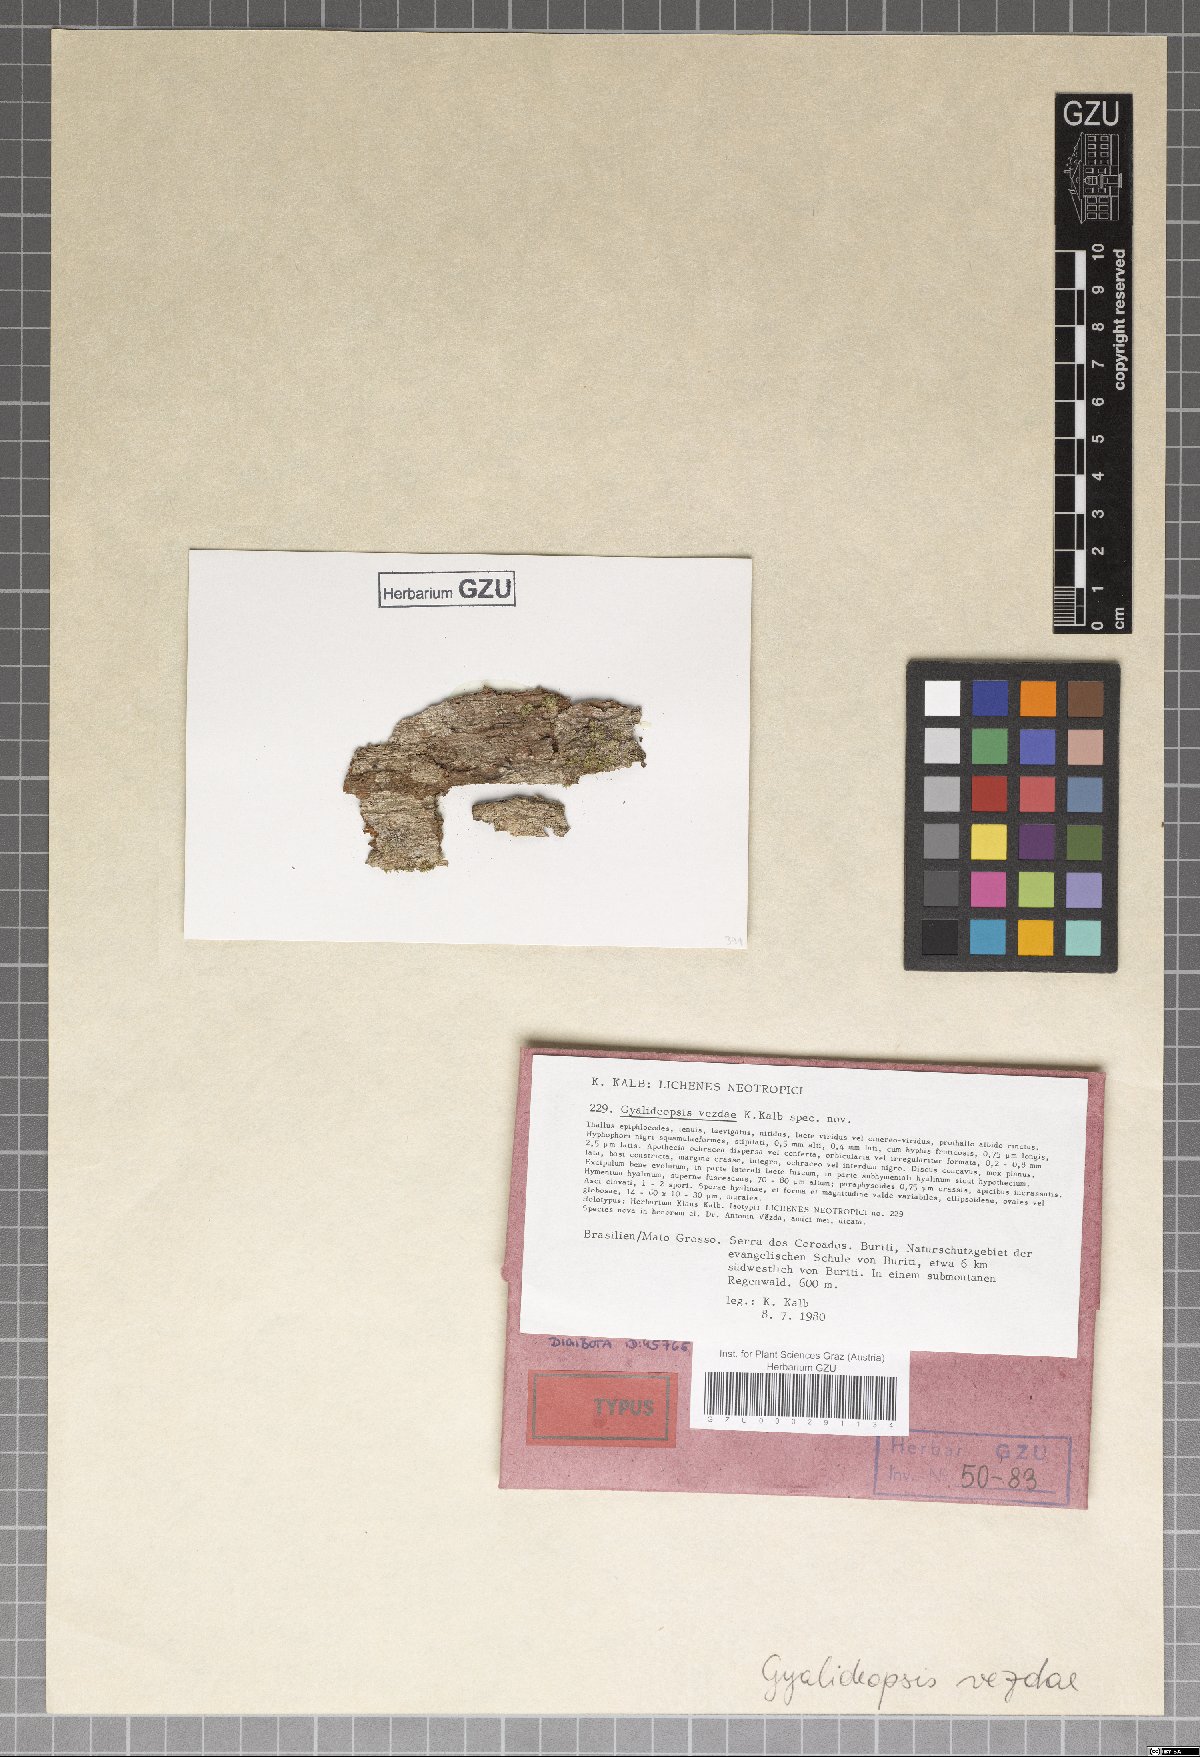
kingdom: Fungi
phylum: Ascomycota
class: Lecanoromycetes
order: Ostropales
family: Gomphillaceae
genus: Gyalideopsis
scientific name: Gyalideopsis
